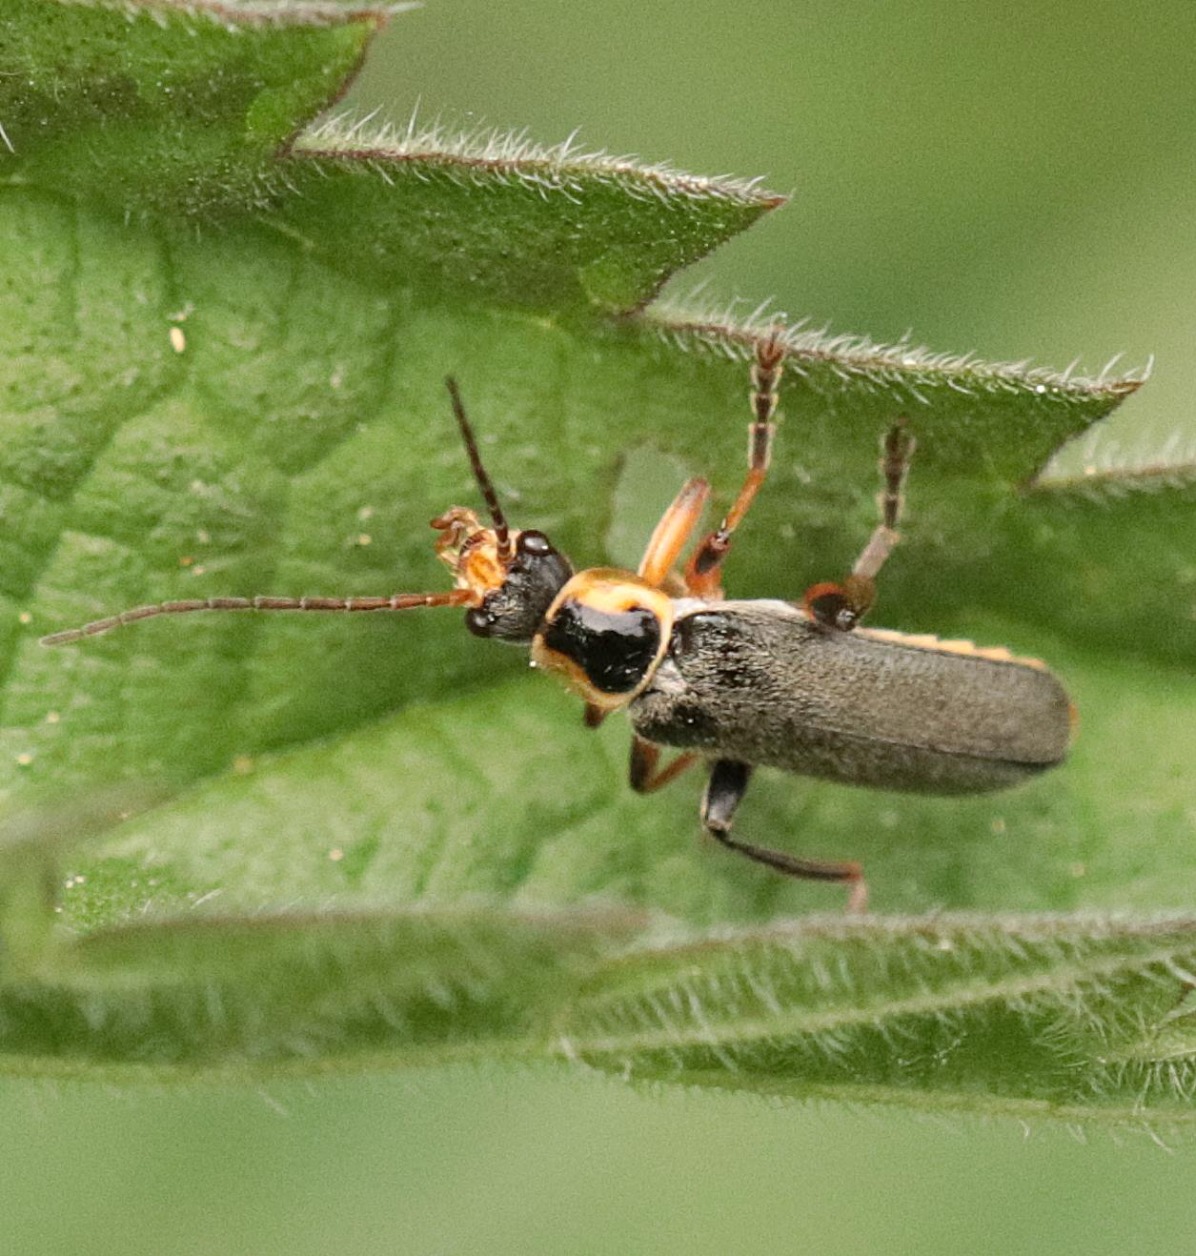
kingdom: Animalia
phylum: Arthropoda
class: Insecta
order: Coleoptera
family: Cantharidae
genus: Cantharis
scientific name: Cantharis nigricans
